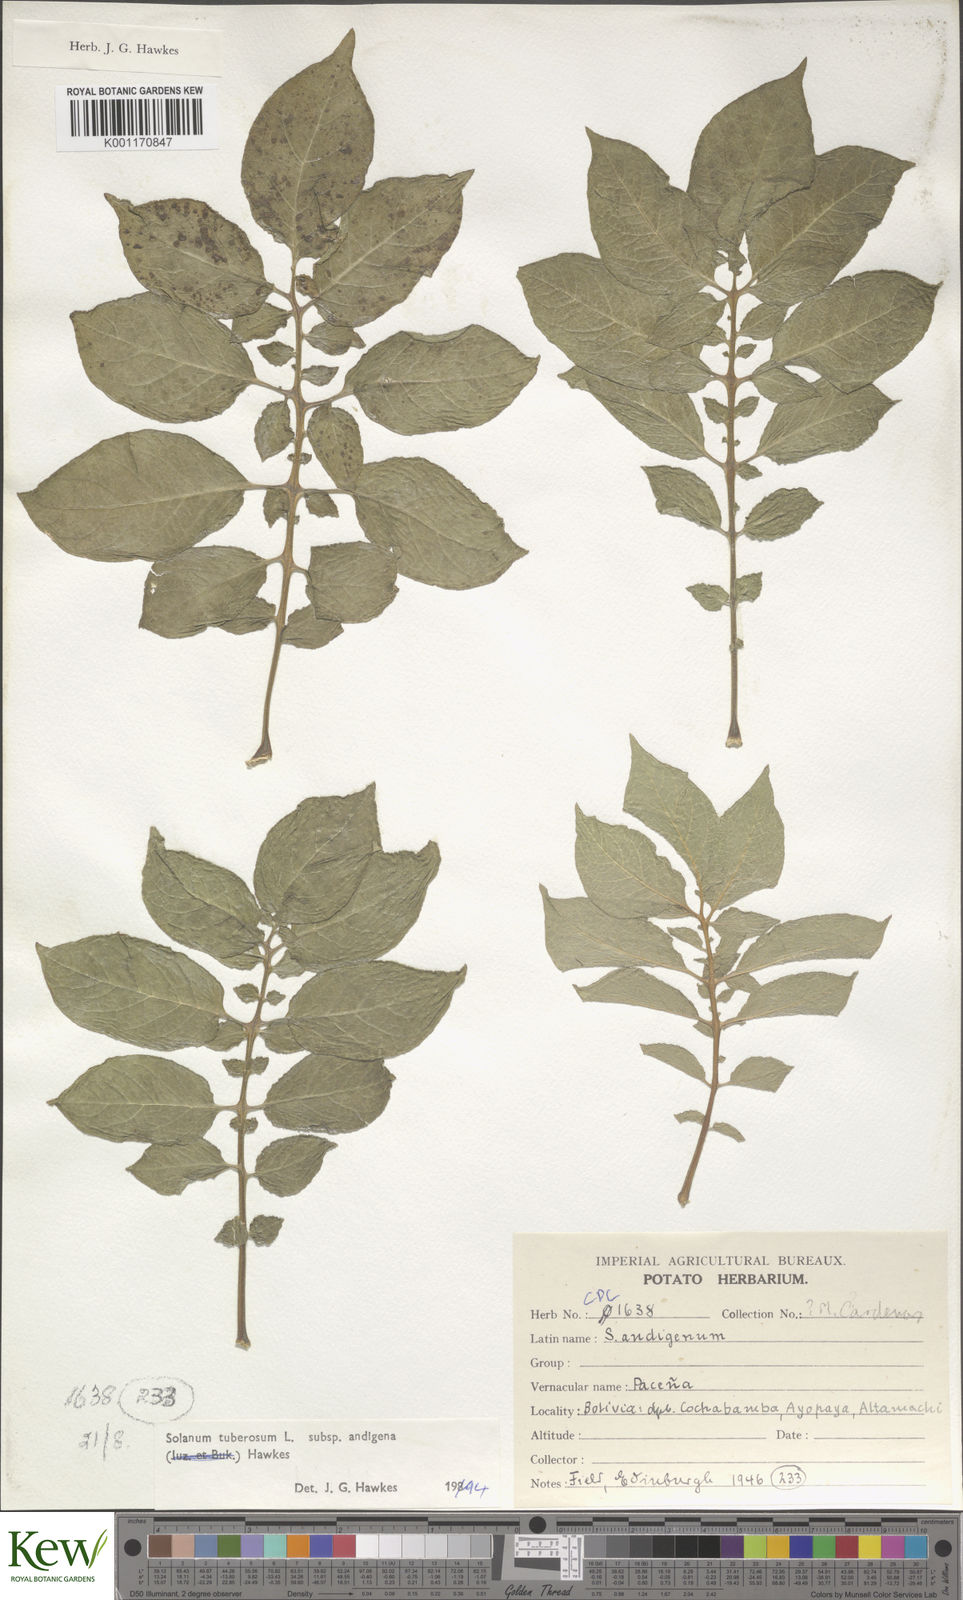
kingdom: Plantae
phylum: Tracheophyta
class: Magnoliopsida
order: Solanales
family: Solanaceae
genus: Solanum
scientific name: Solanum tuberosum
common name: Potato
